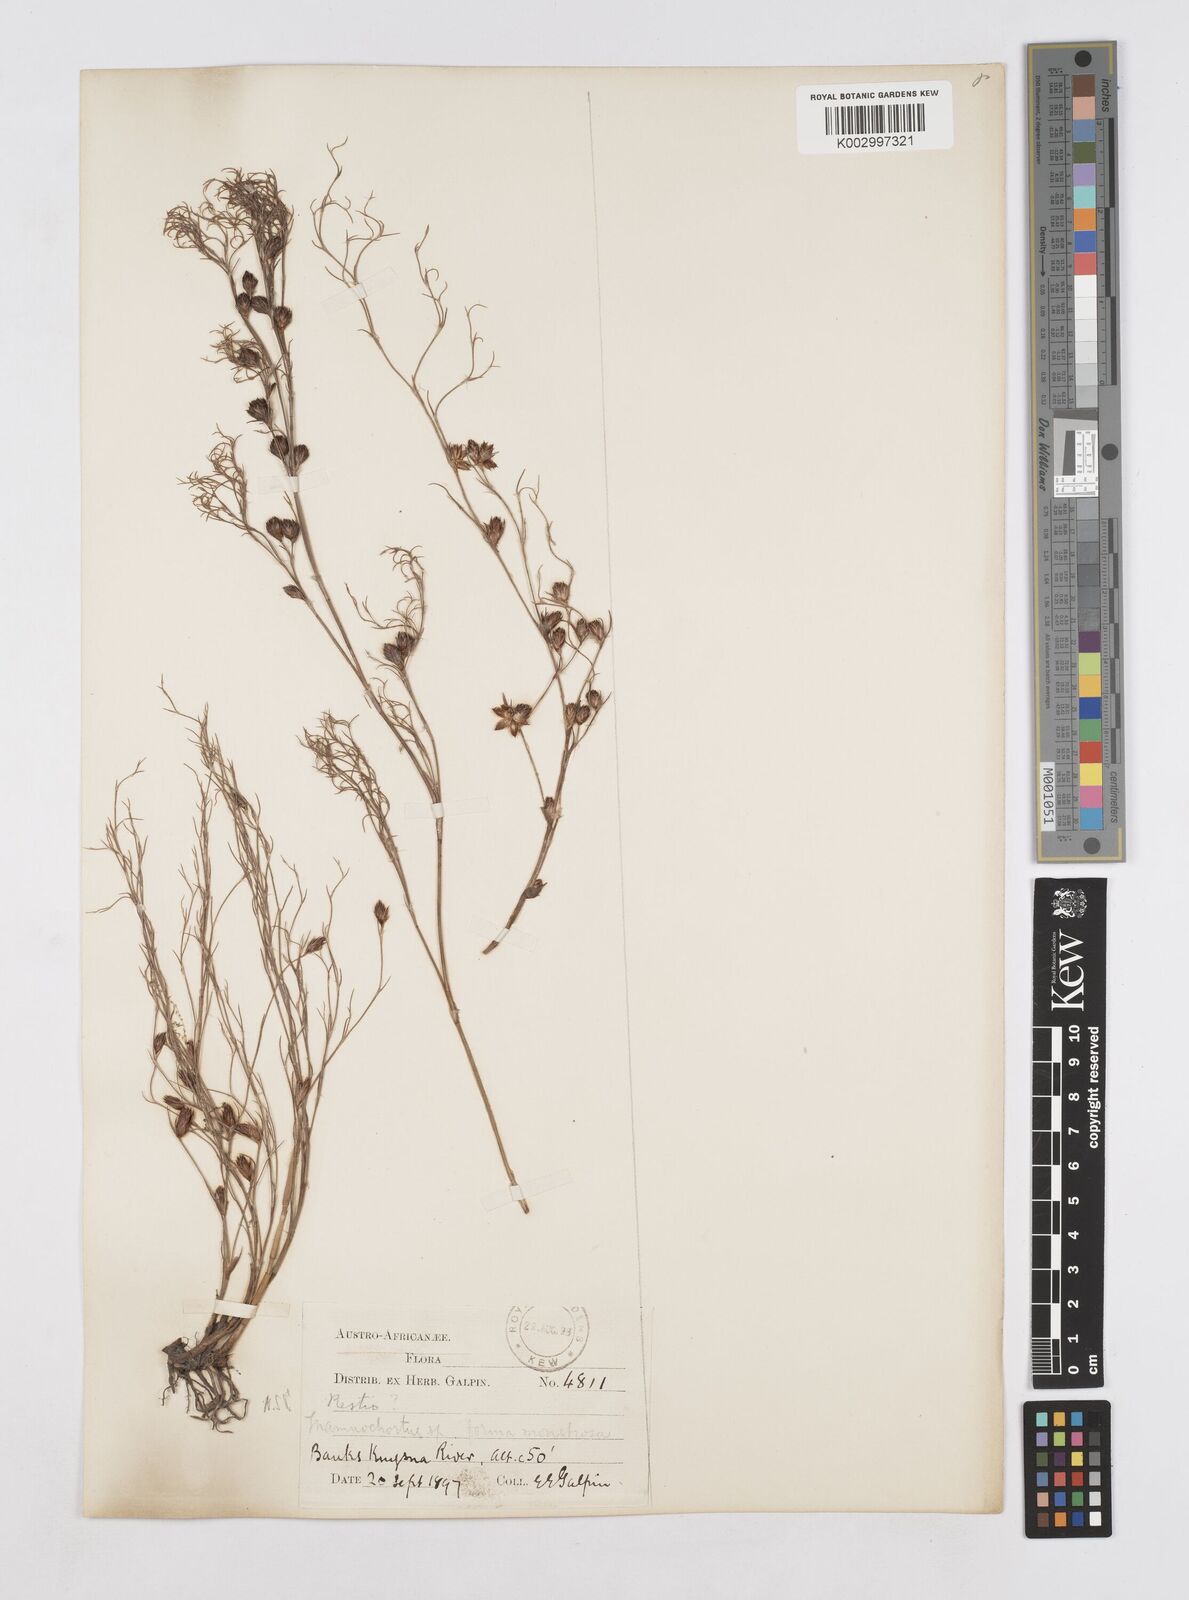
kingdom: Plantae
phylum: Tracheophyta
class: Liliopsida
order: Poales
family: Restionaceae
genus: Thamnochortus
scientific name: Thamnochortus
